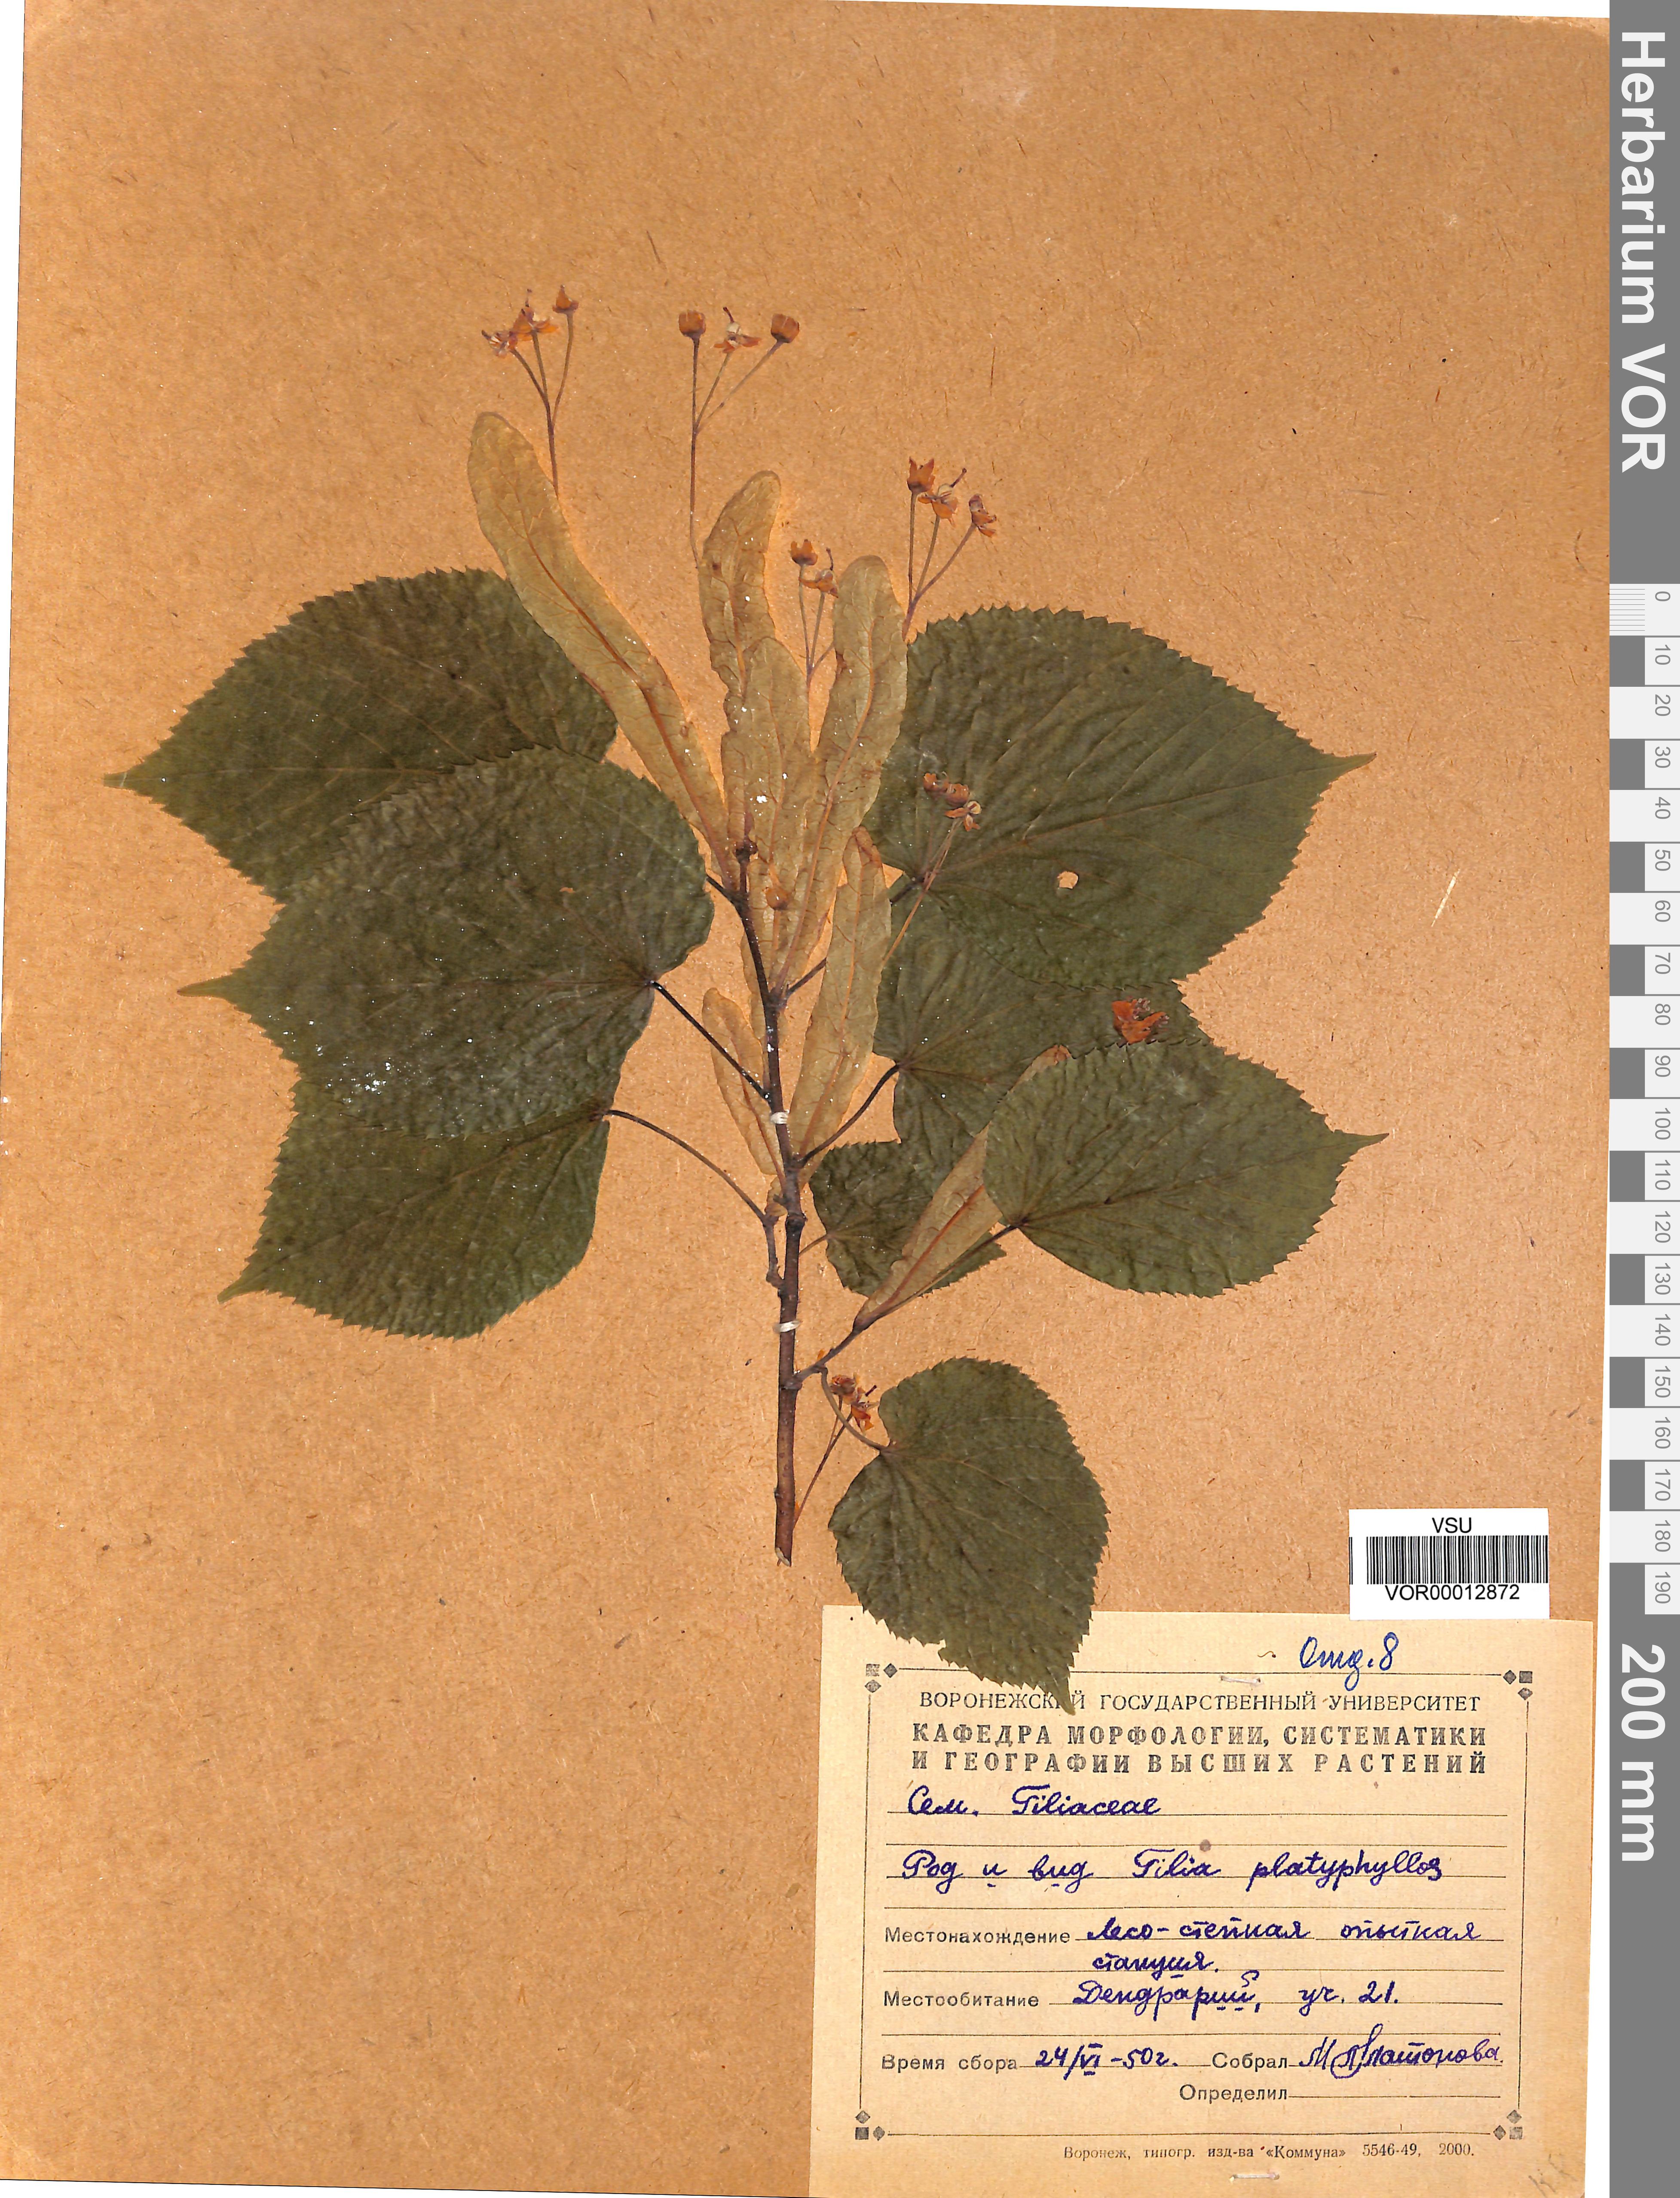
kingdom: Plantae
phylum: Tracheophyta
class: Magnoliopsida
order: Malvales
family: Malvaceae
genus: Tilia
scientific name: Tilia platyphyllos
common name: Large-leaved lime
